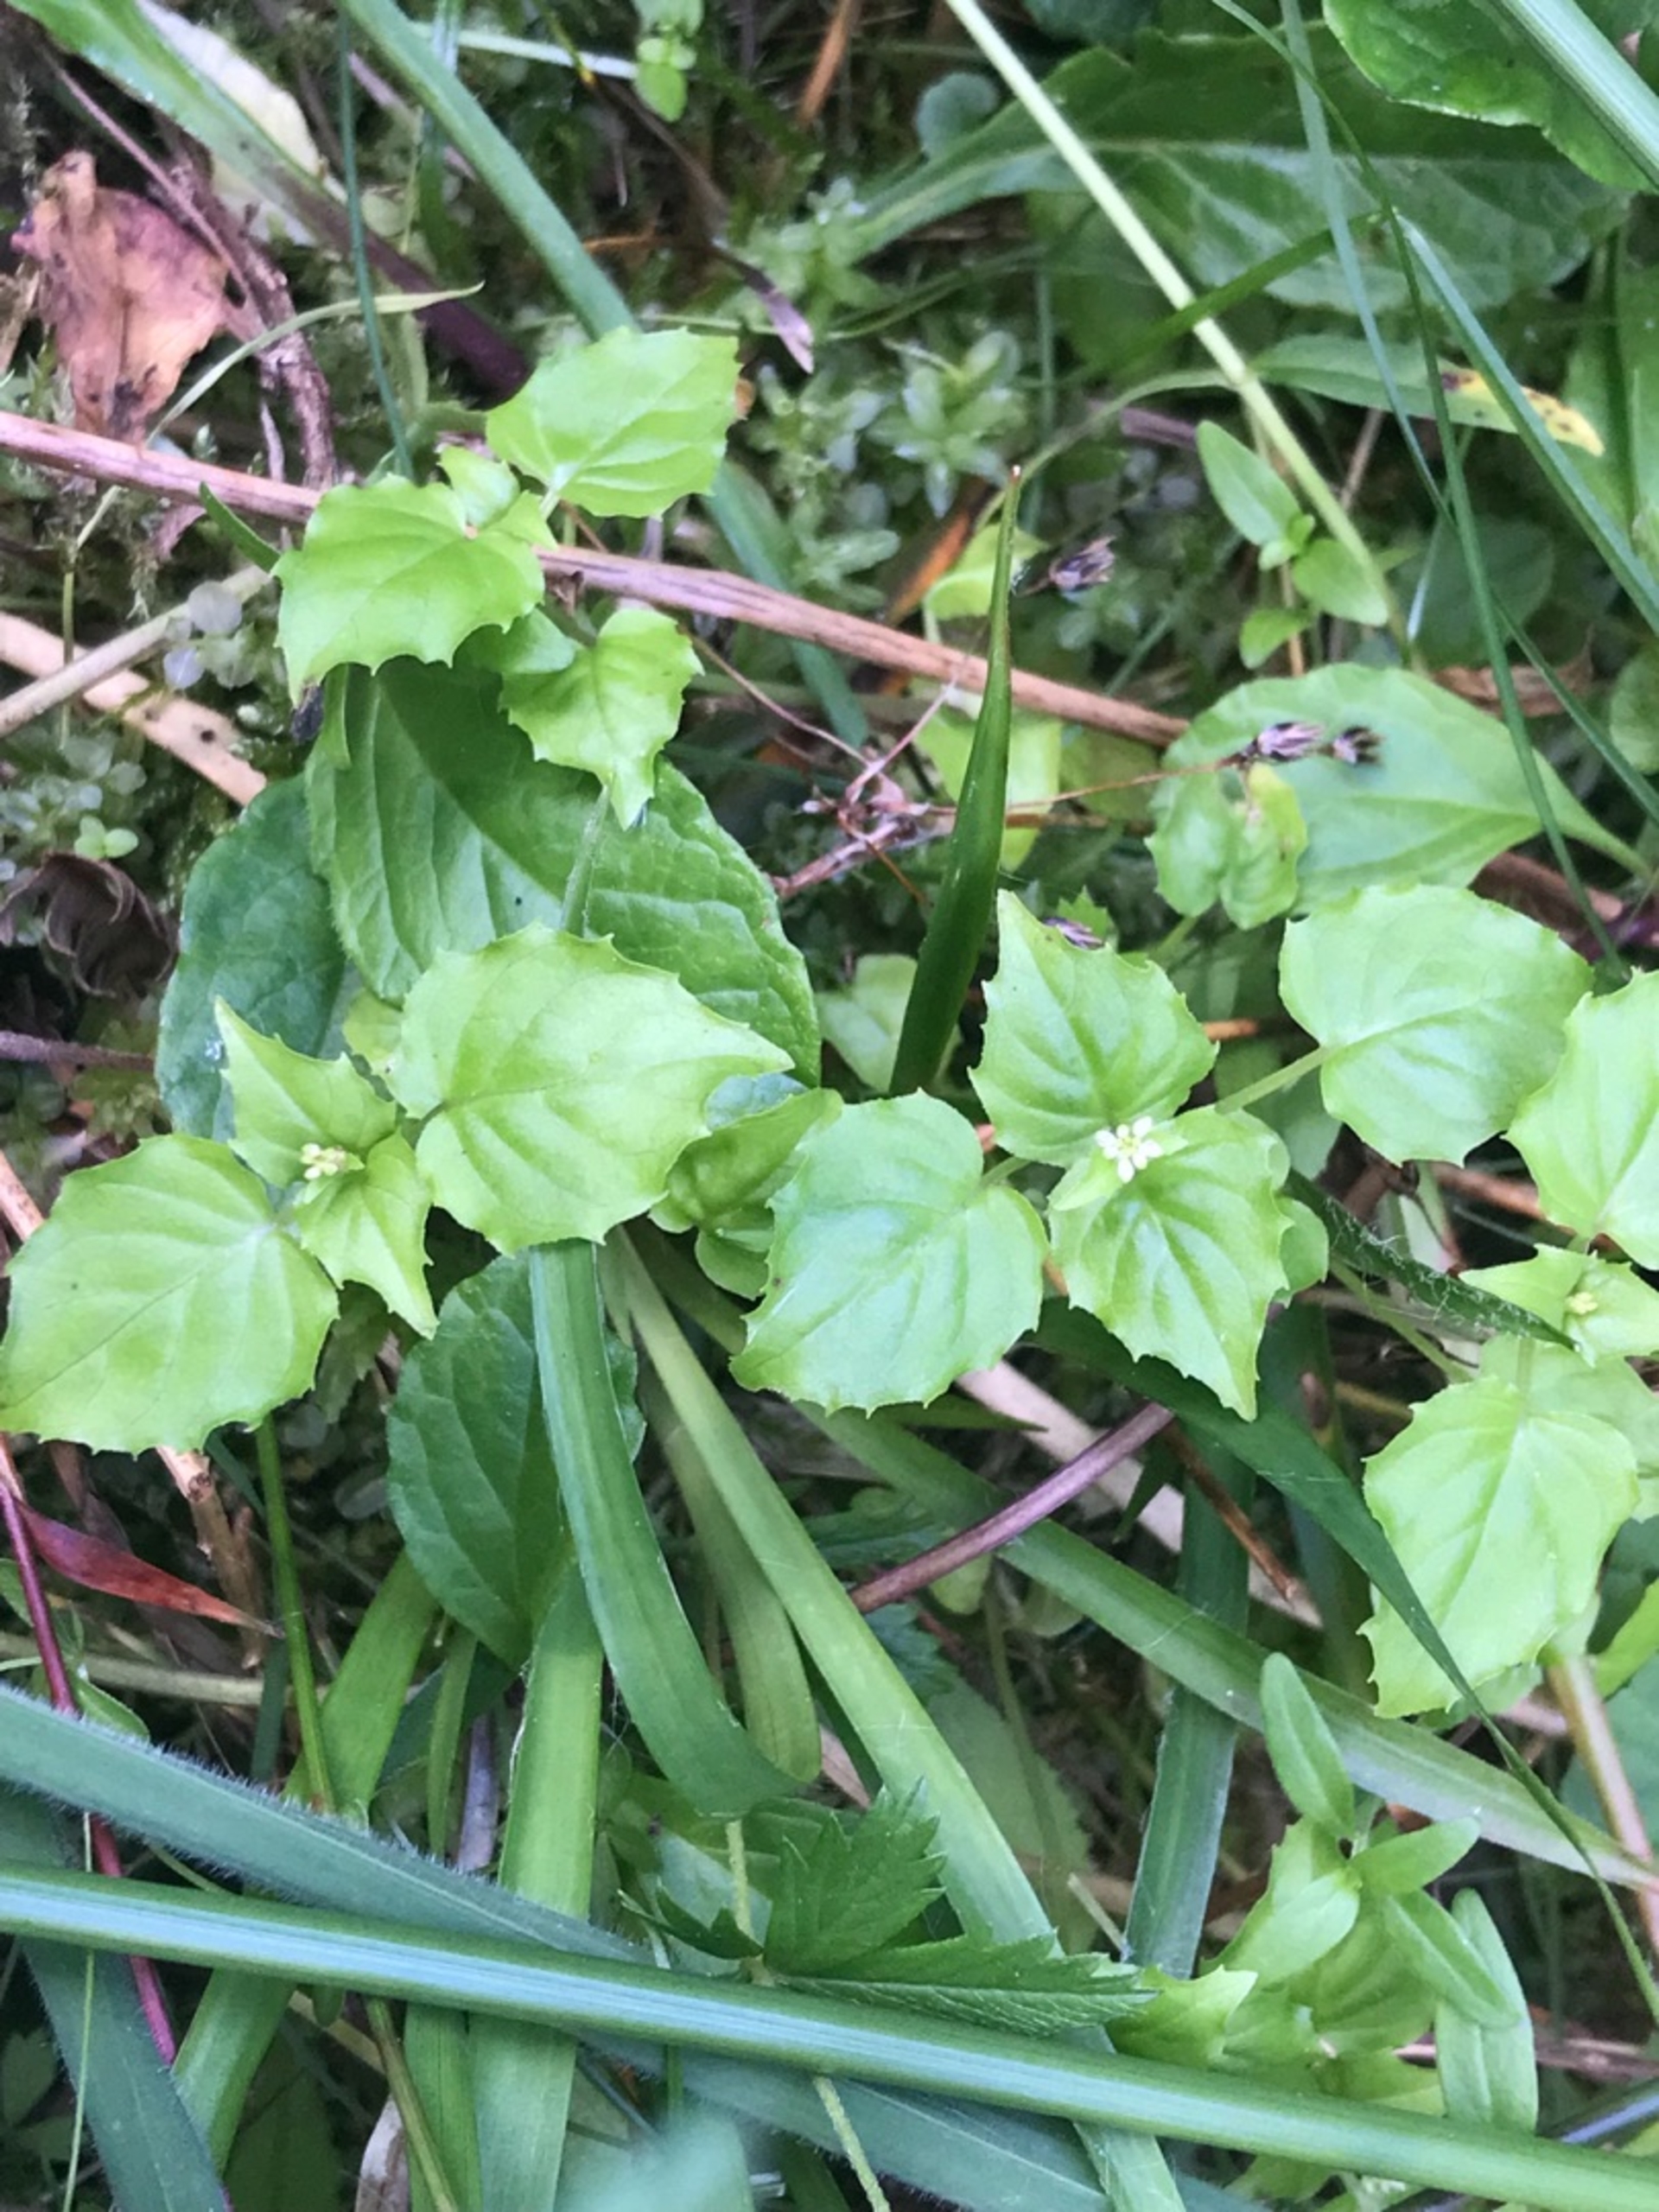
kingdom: Plantae
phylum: Tracheophyta
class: Magnoliopsida
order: Myrtales
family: Onagraceae
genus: Circaea
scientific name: Circaea alpina
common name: Liden steffensurt
